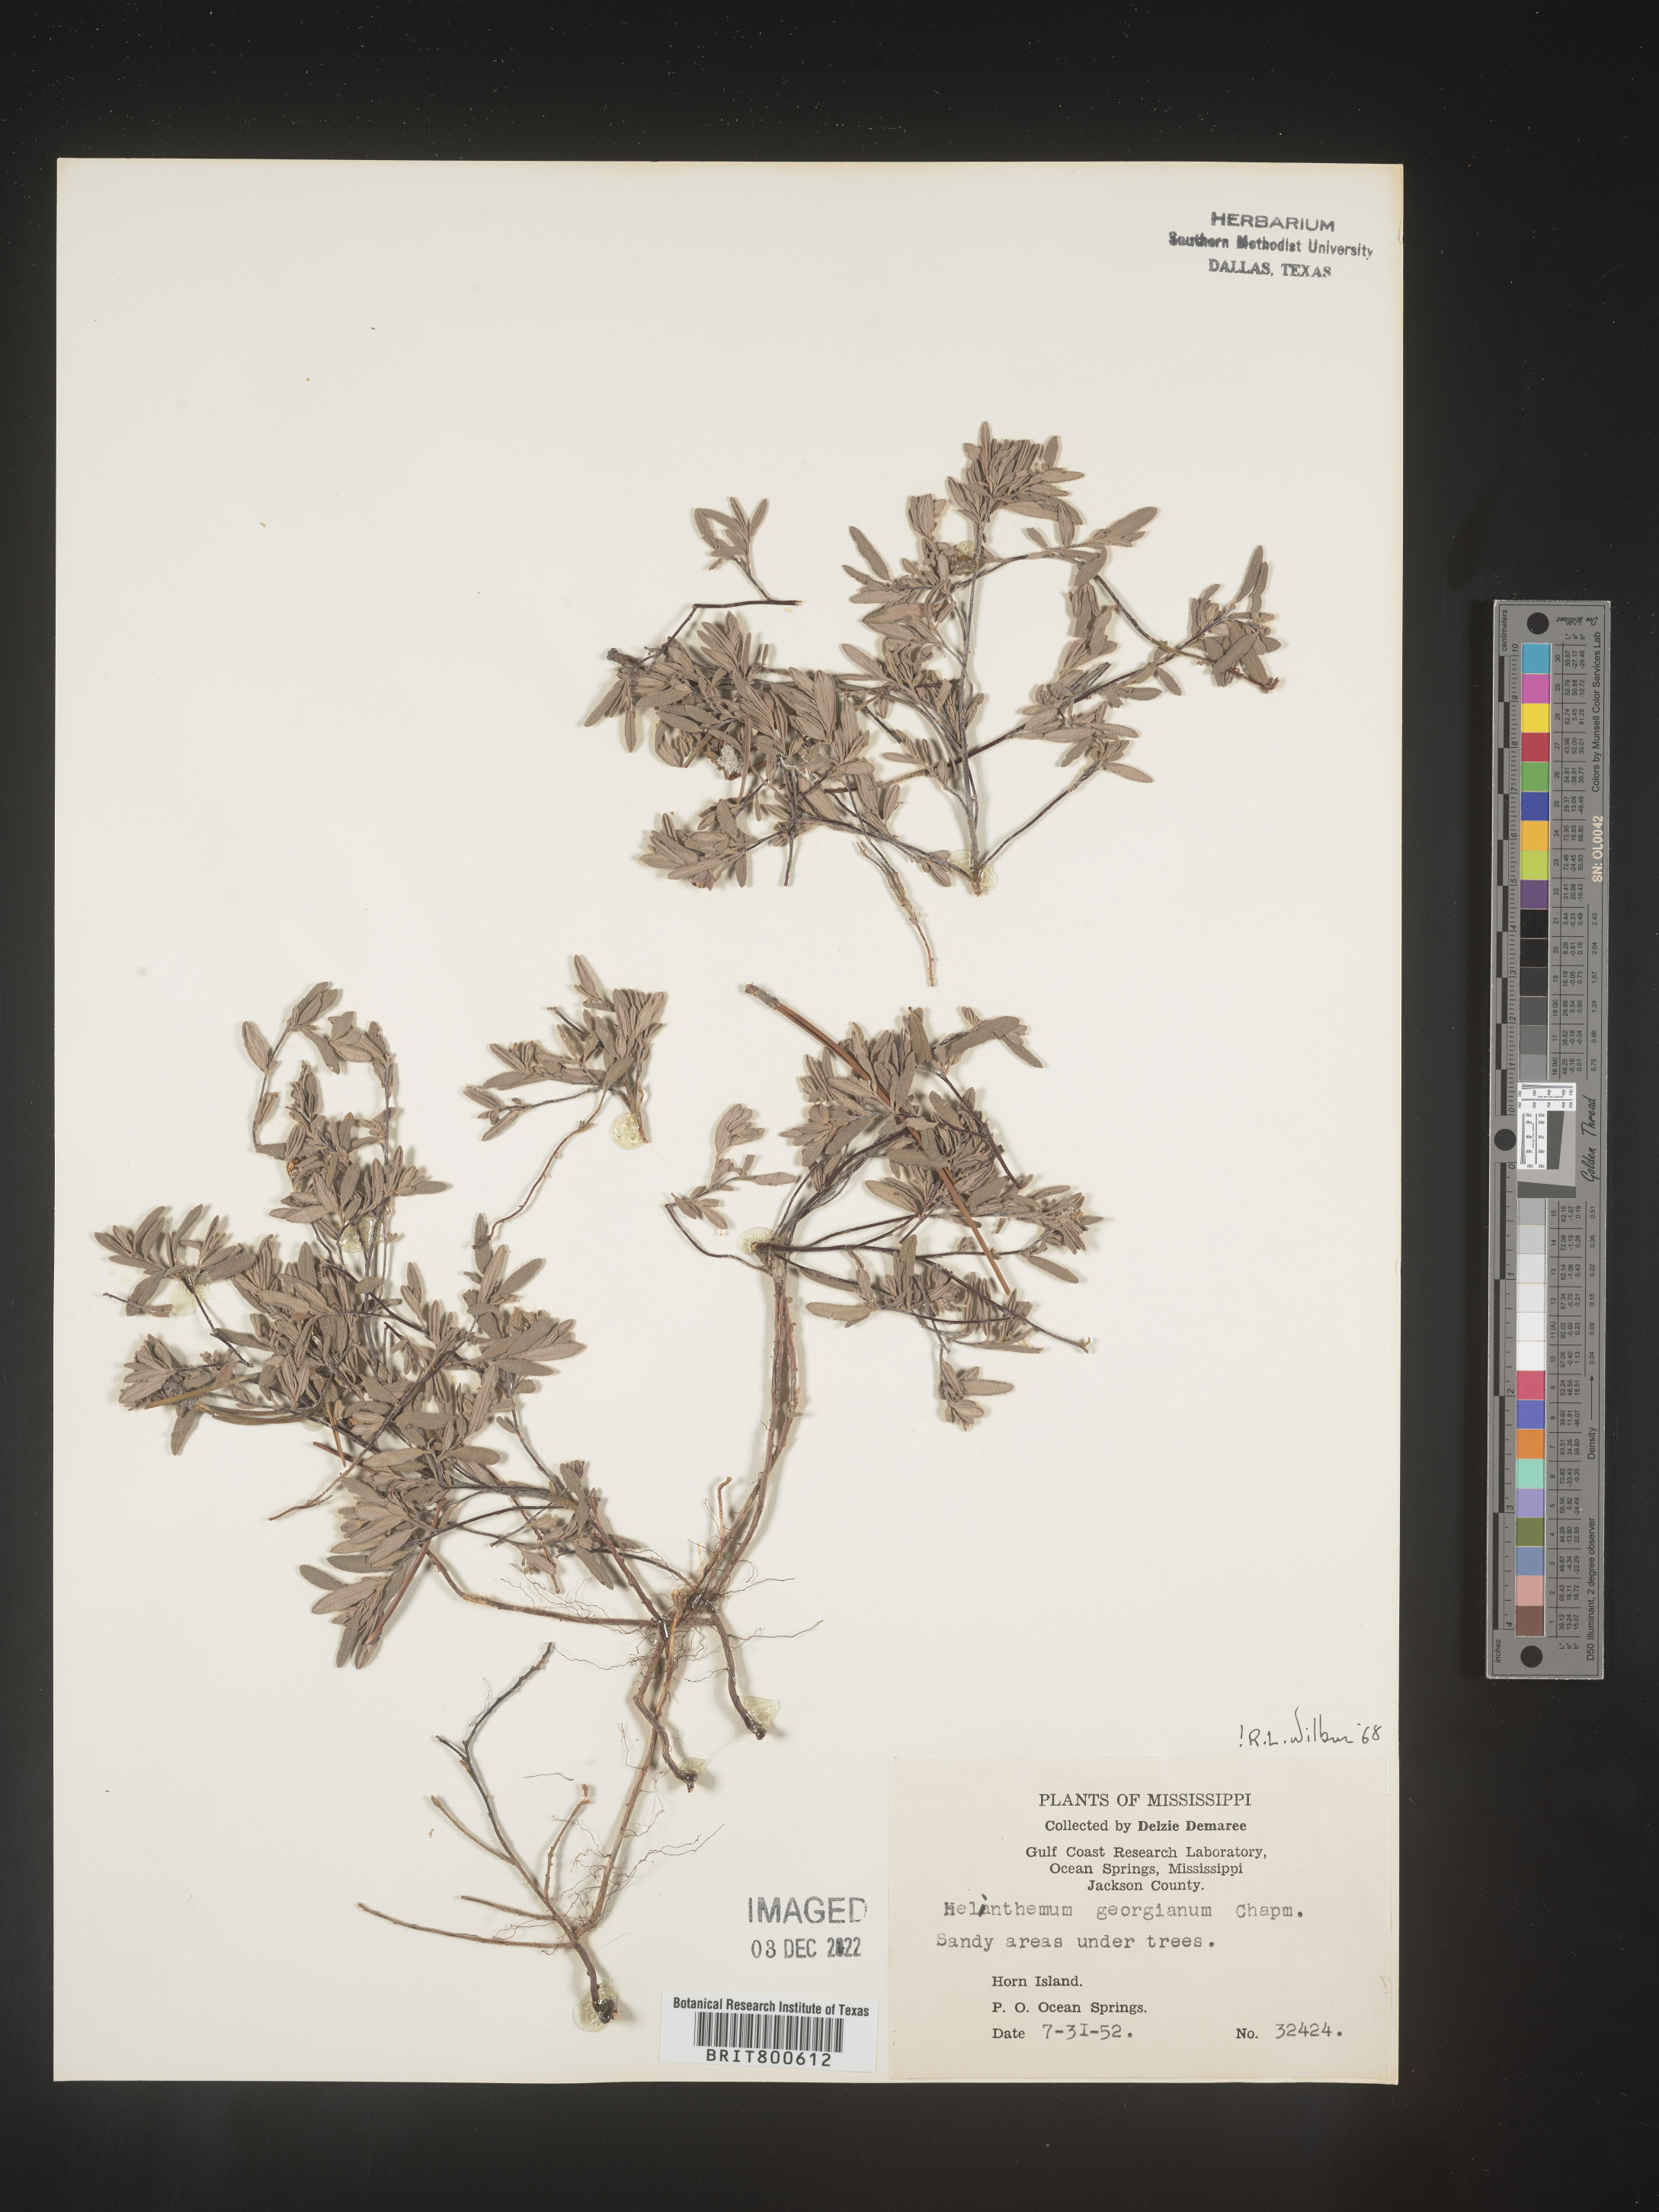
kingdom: Plantae
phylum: Tracheophyta
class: Magnoliopsida
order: Malvales
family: Cistaceae
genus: Crocanthemum
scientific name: Crocanthemum georgianum
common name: Georgia frostweed
